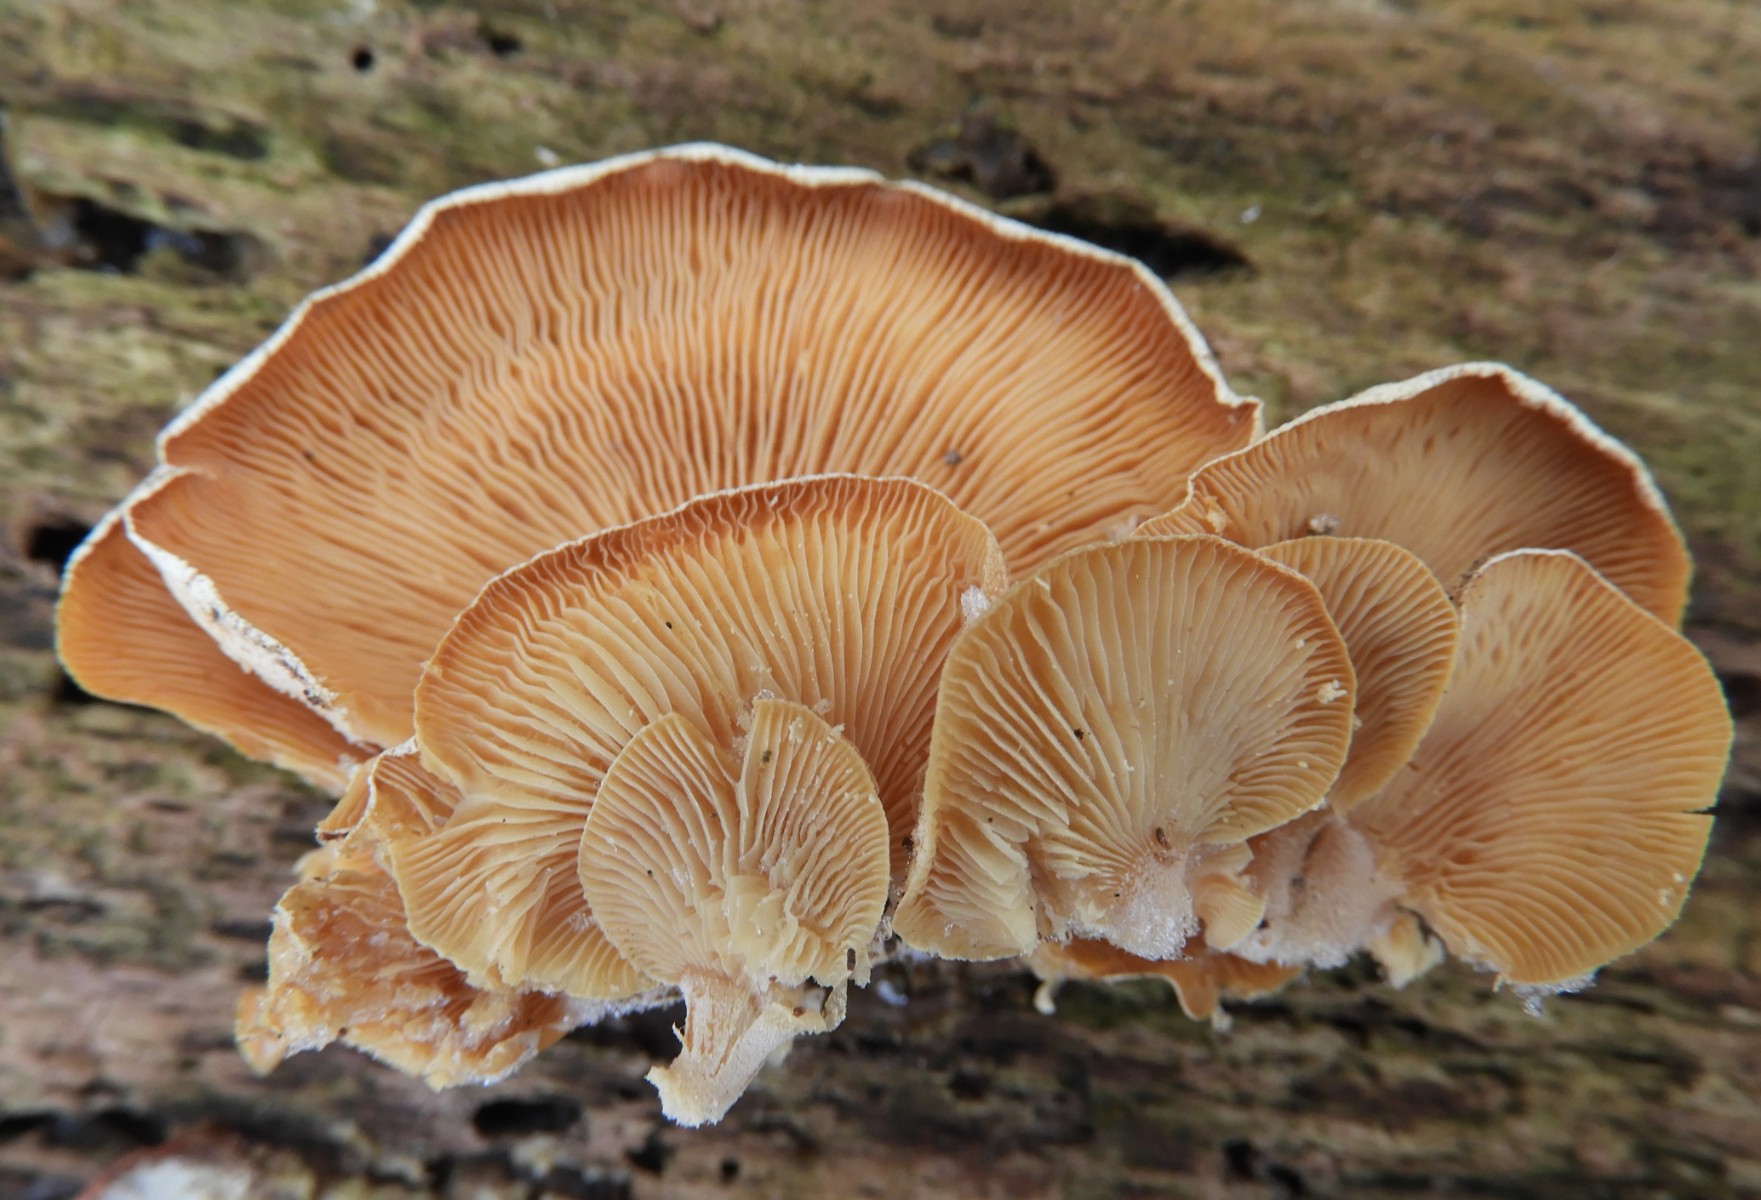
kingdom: Fungi
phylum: Basidiomycota
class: Agaricomycetes
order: Agaricales
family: Mycenaceae
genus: Panellus
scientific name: Panellus stipticus
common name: kliddet epaulethat
